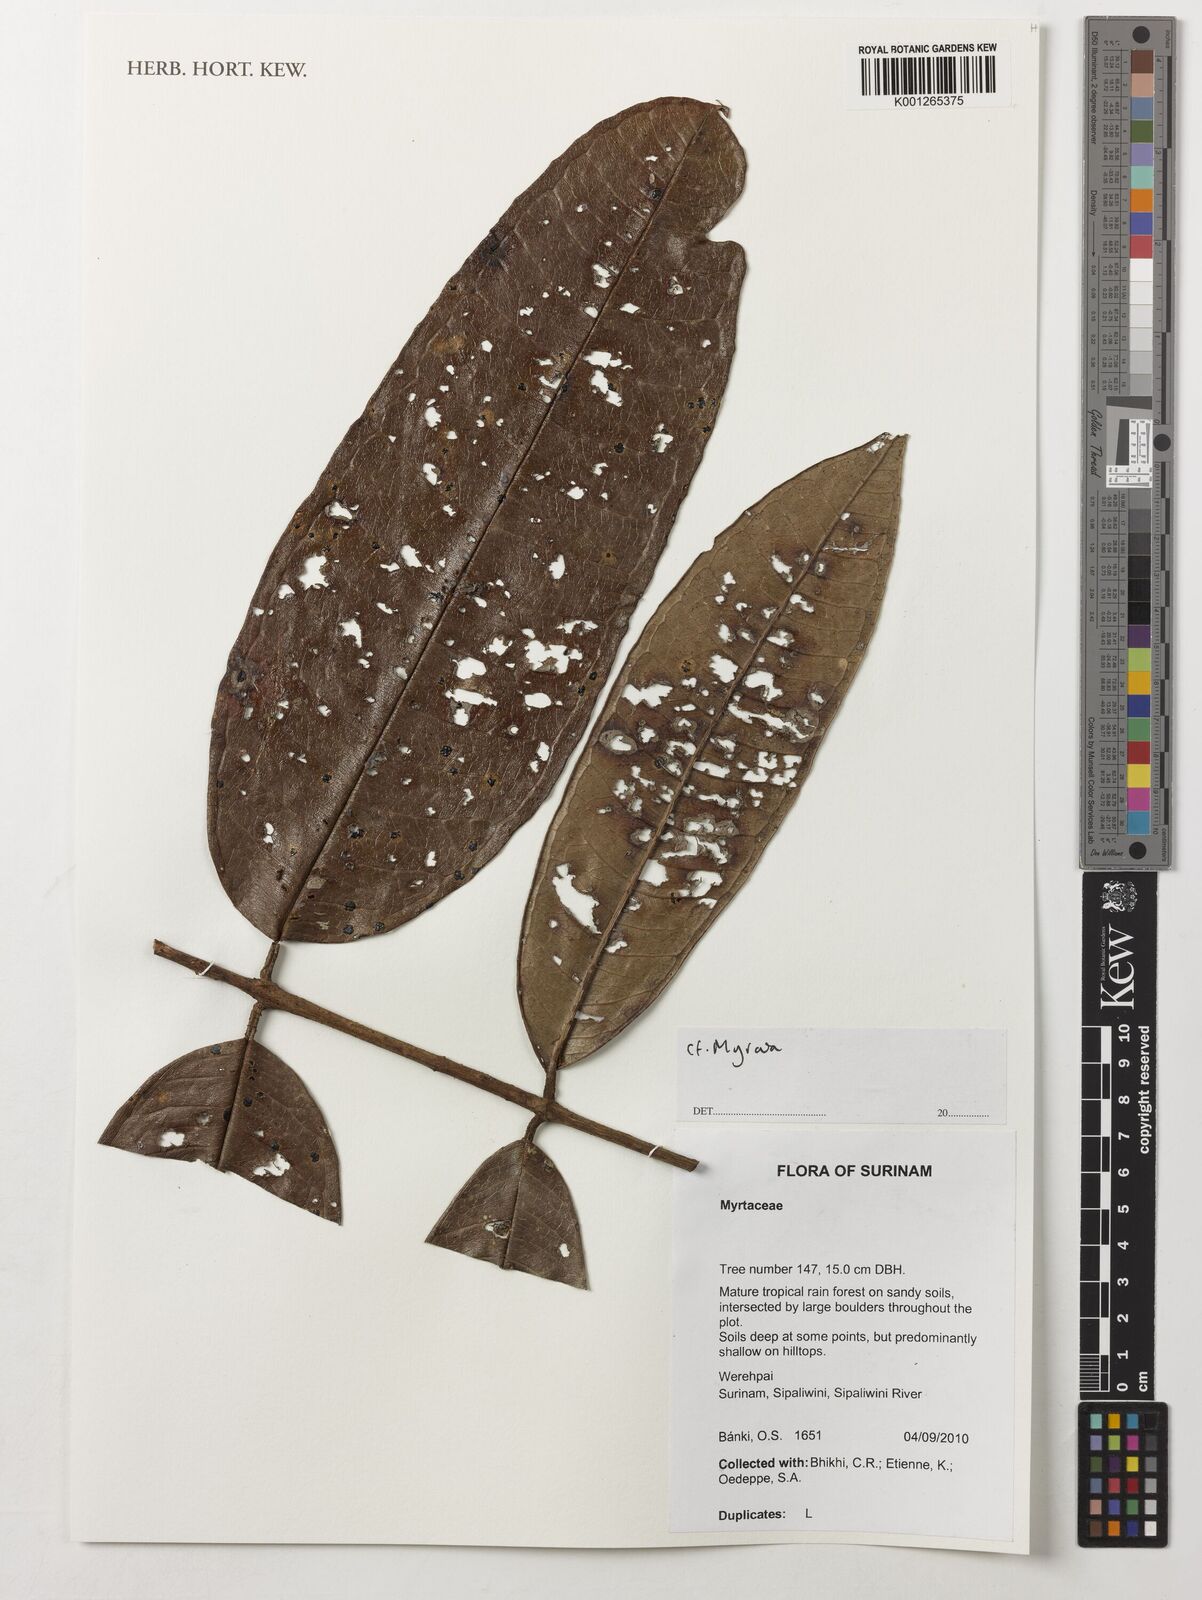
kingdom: Plantae
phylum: Tracheophyta
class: Magnoliopsida
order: Myrtales
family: Myrtaceae
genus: Myrcia
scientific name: Myrcia
